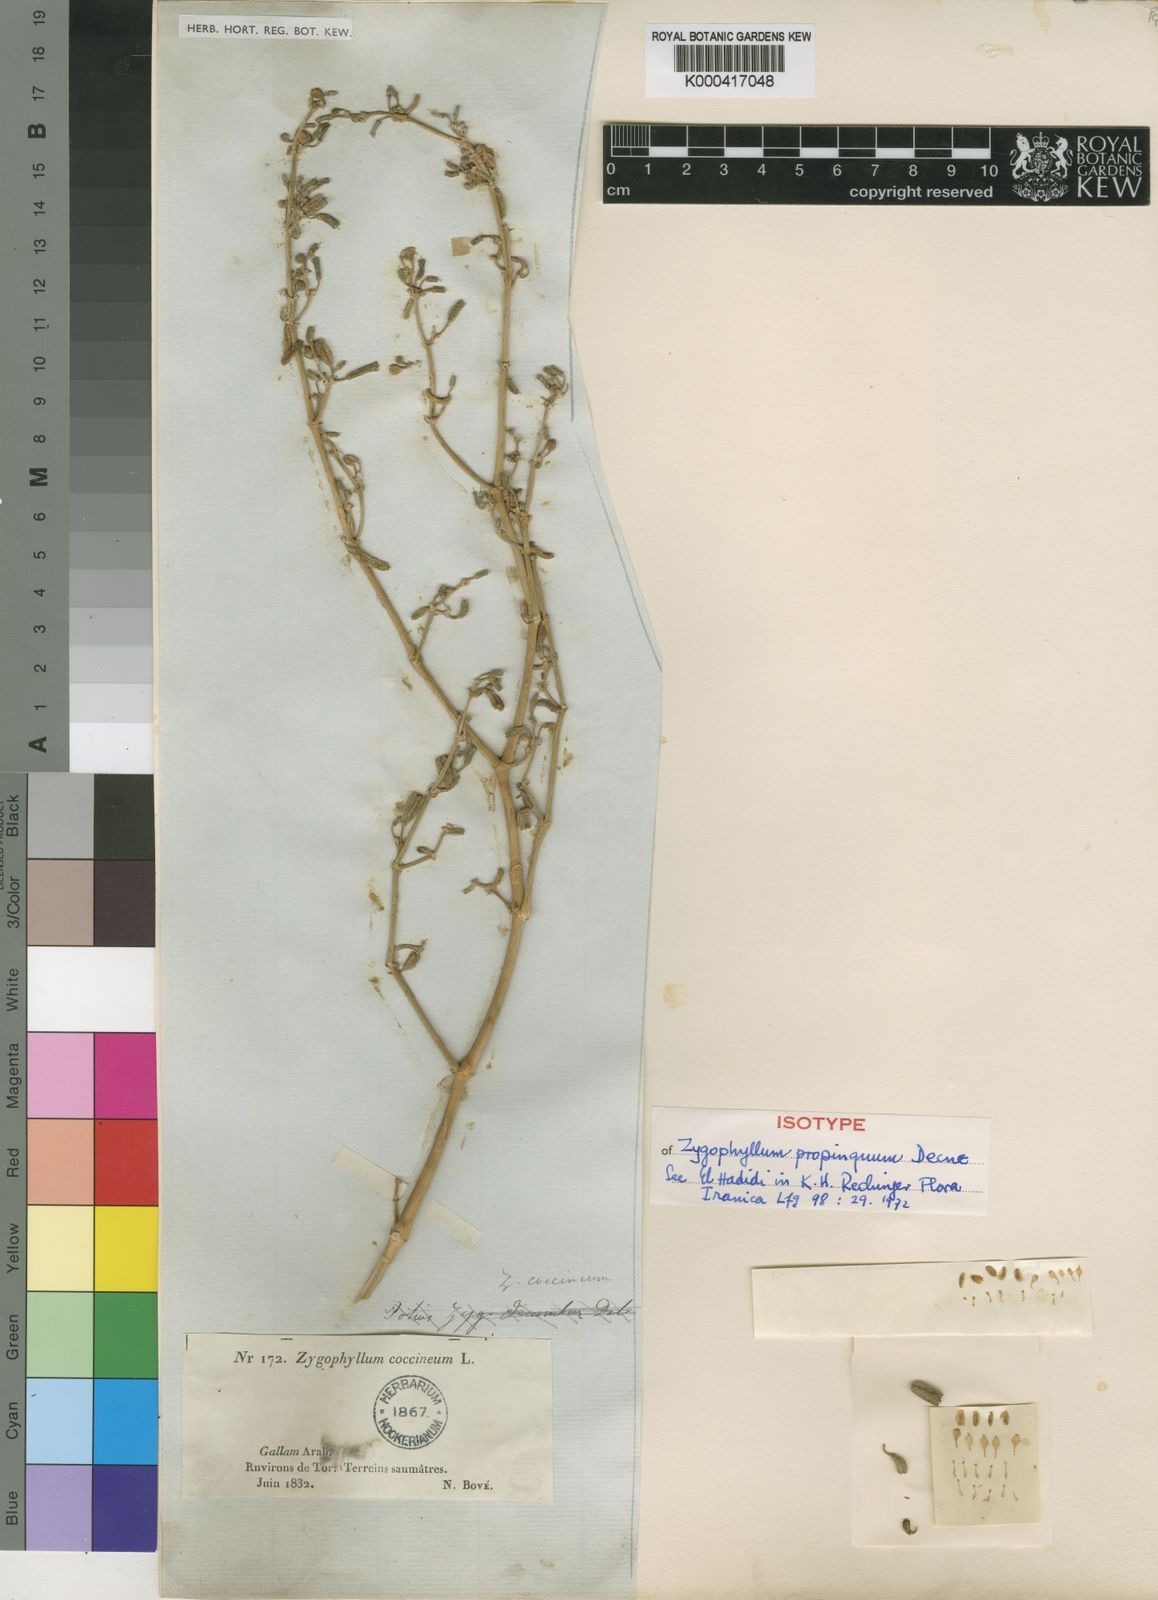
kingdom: Plantae
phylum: Tracheophyta
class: Magnoliopsida
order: Zygophyllales
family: Zygophyllaceae
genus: Tetraena
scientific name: Tetraena
